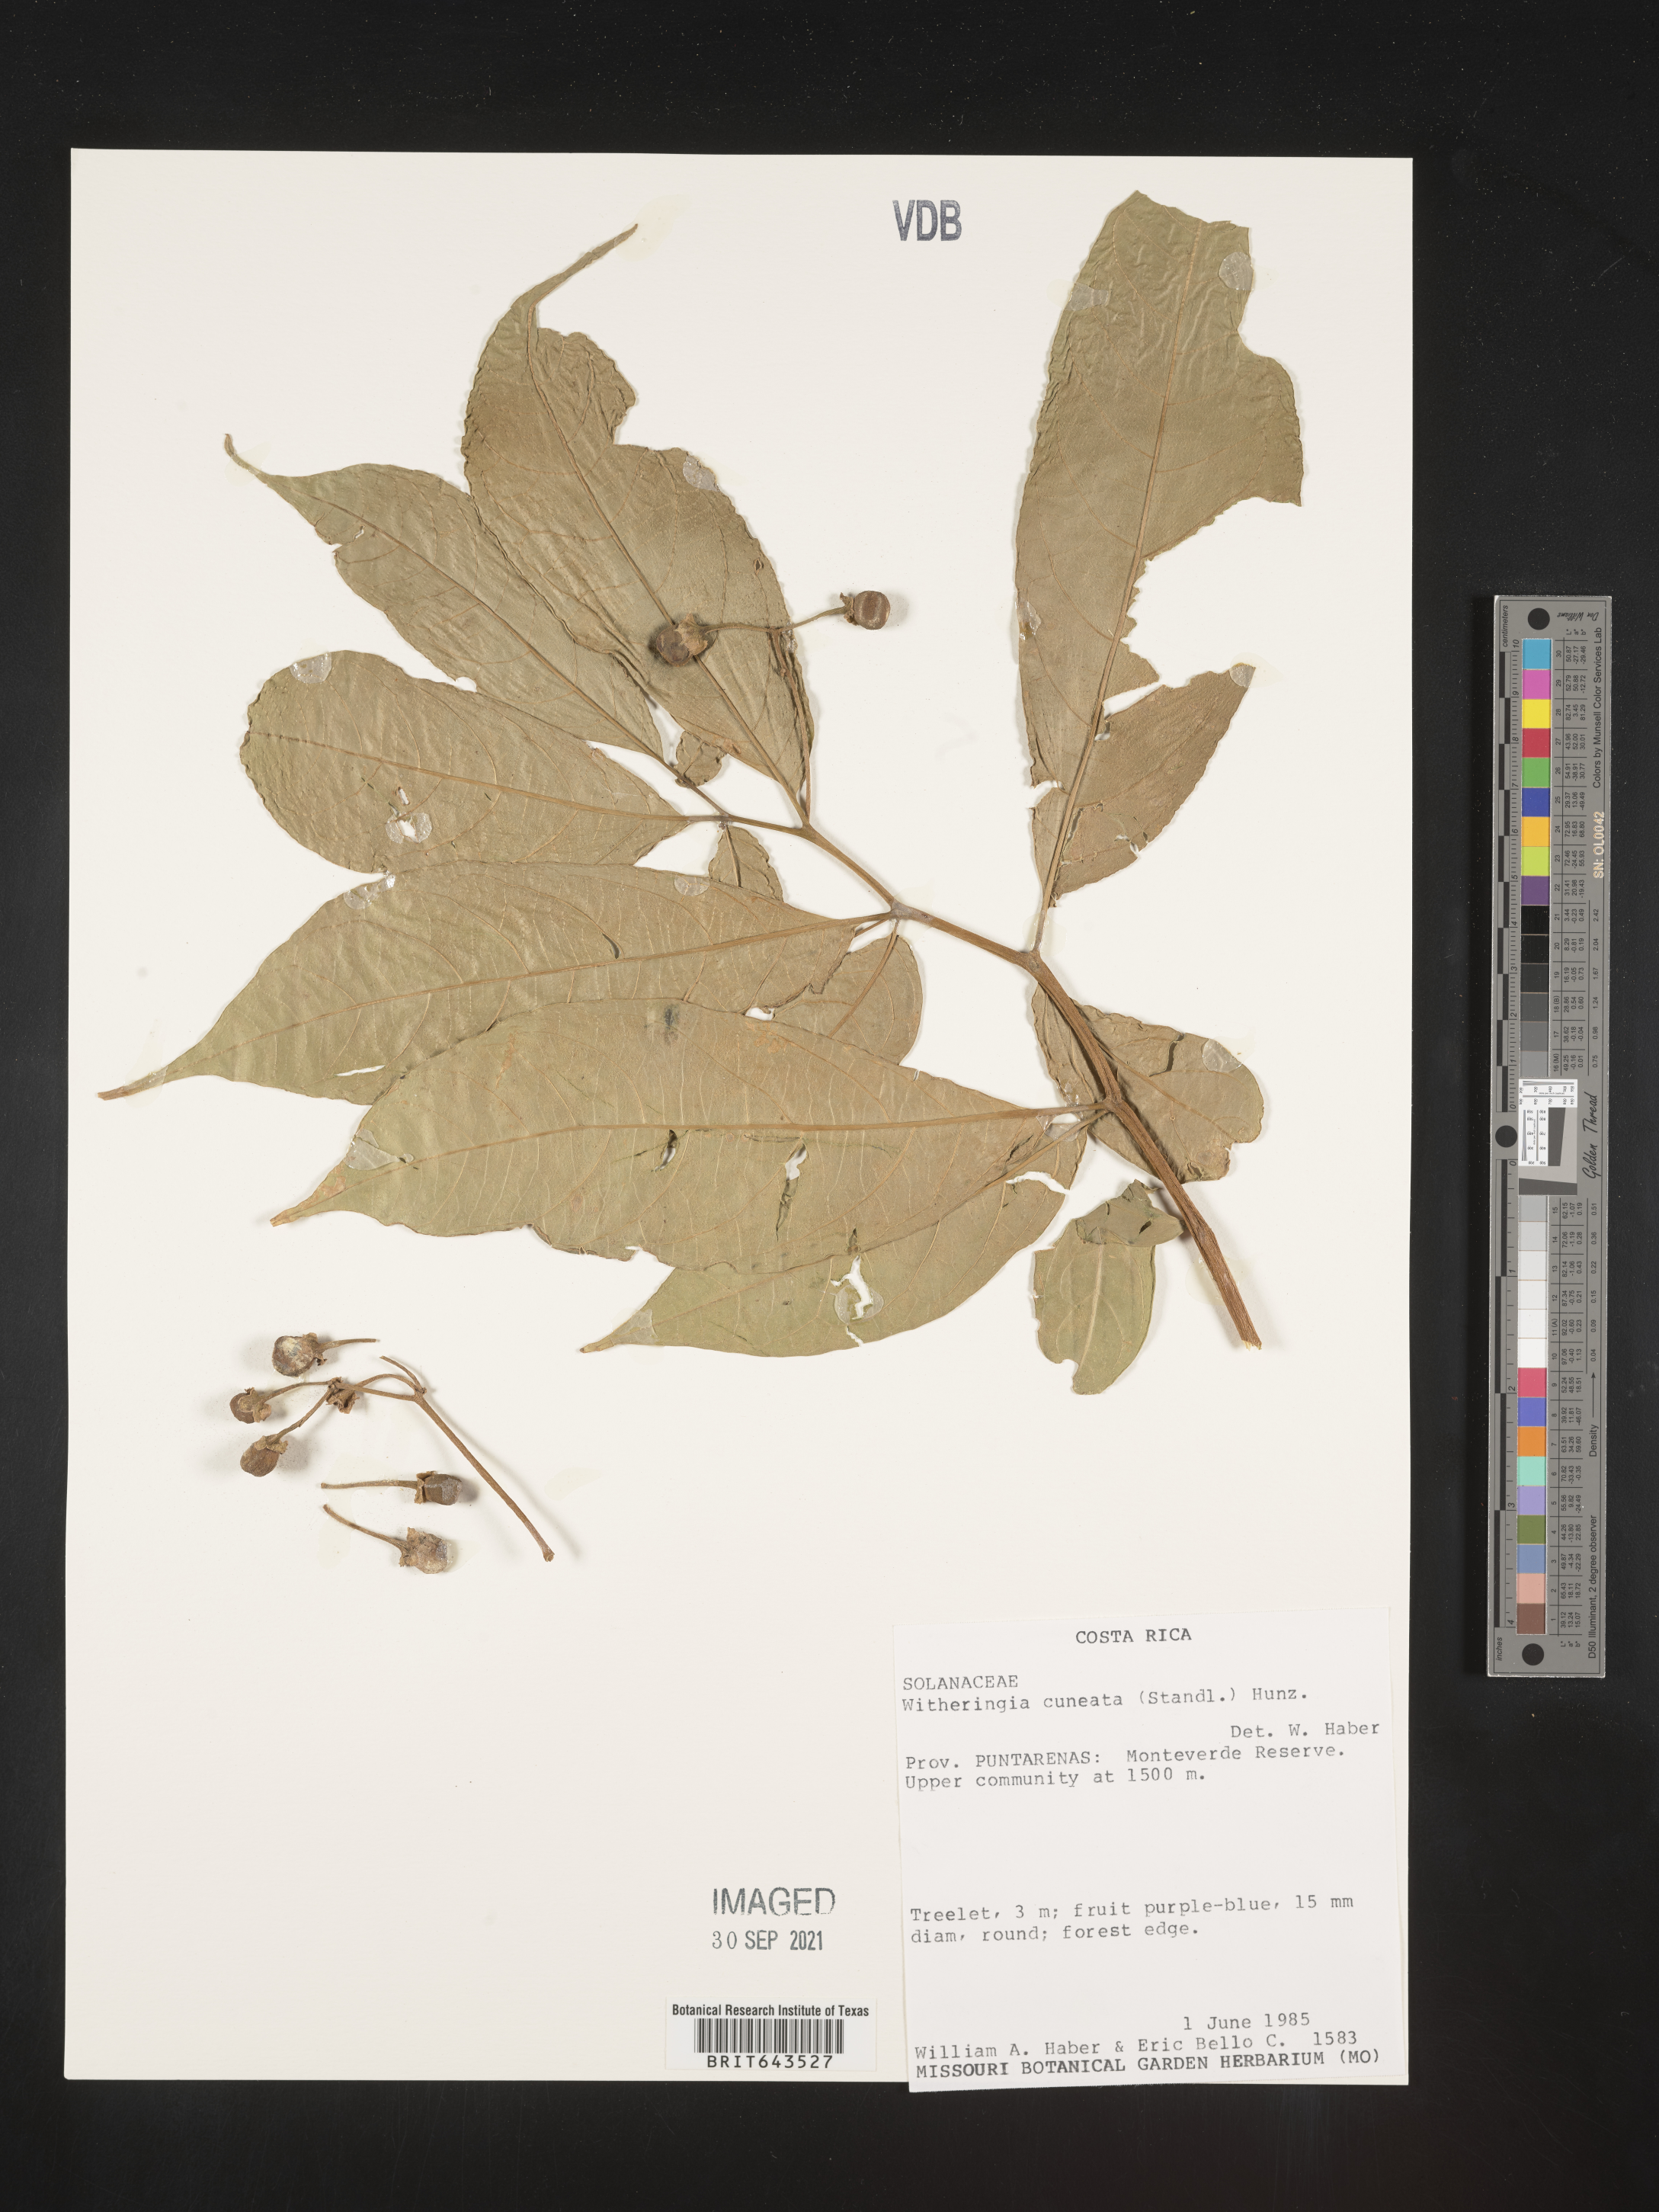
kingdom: Plantae
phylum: Tracheophyta
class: Magnoliopsida
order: Solanales
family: Solanaceae
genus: Witheringia
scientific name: Witheringia
